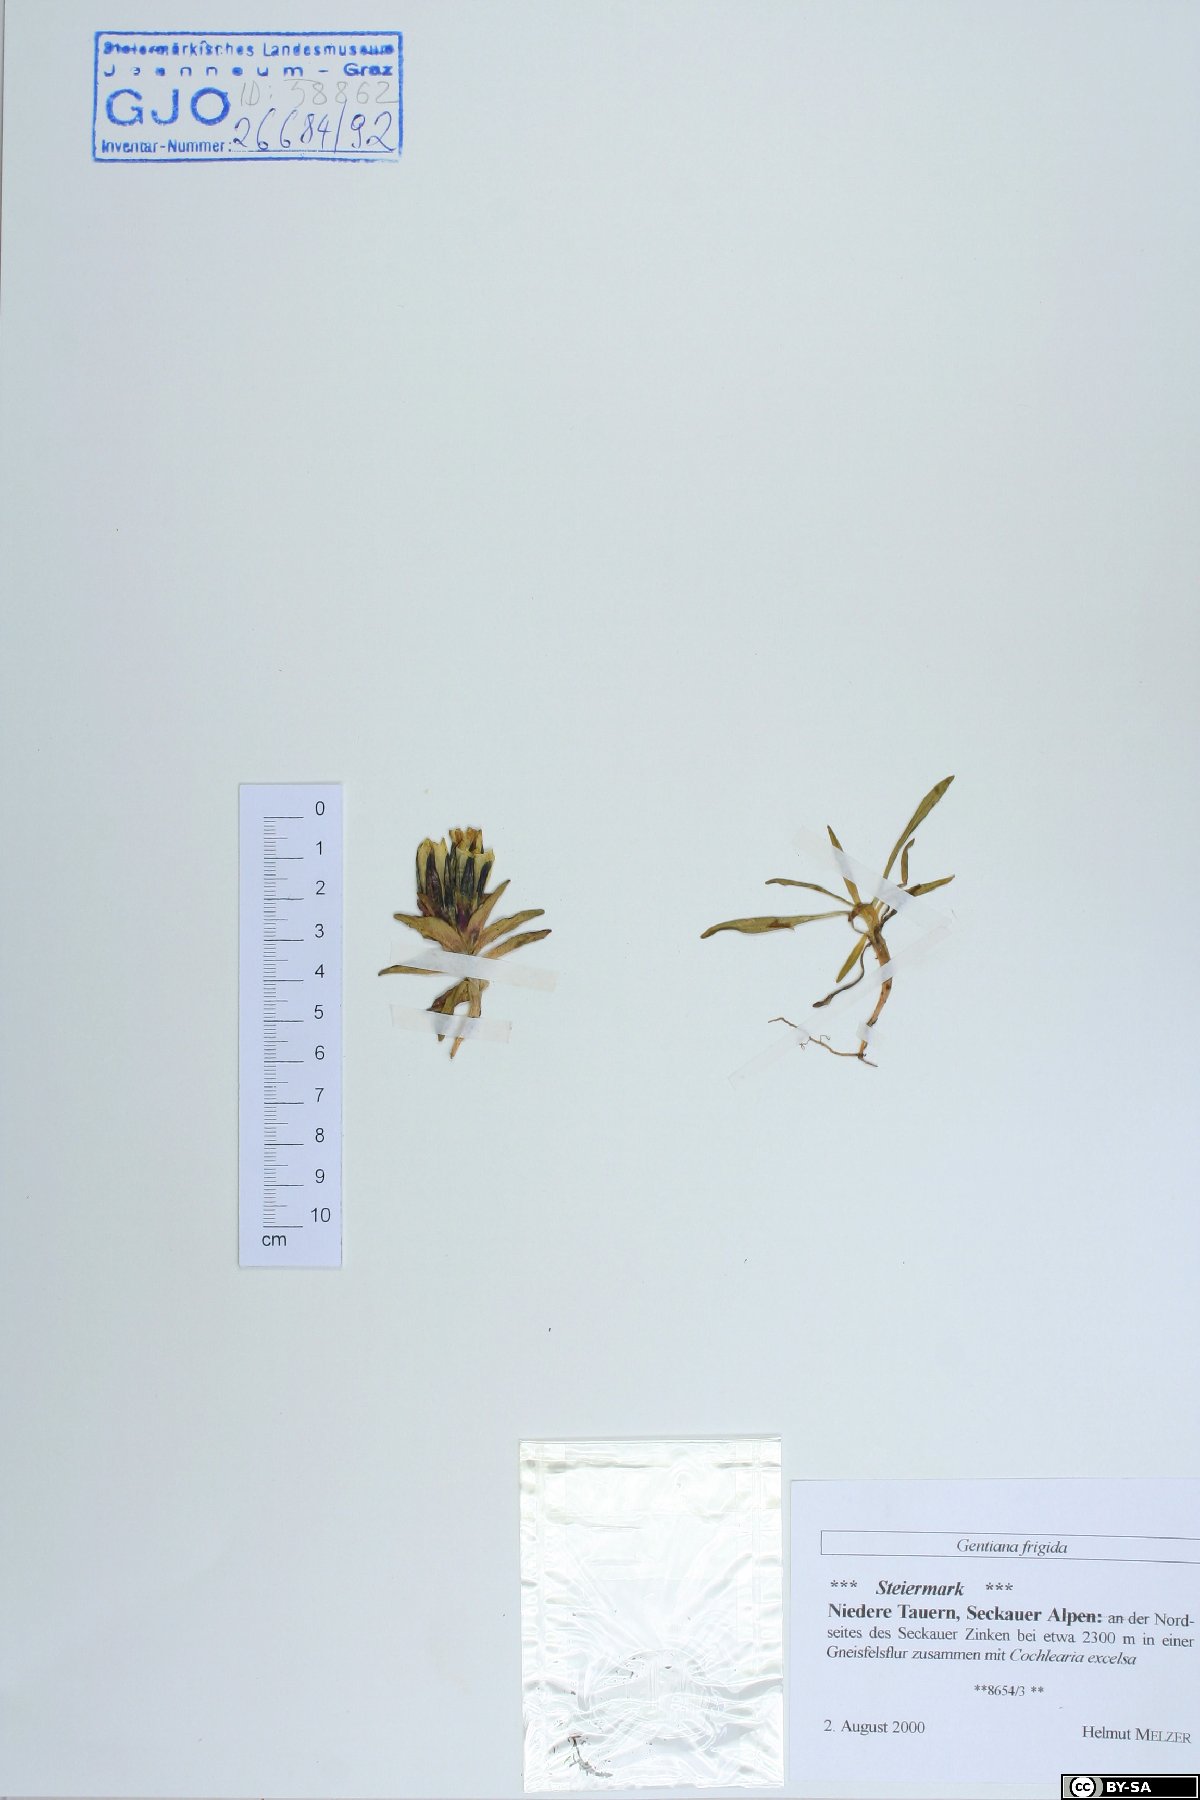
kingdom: Plantae
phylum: Tracheophyta
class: Magnoliopsida
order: Gentianales
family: Gentianaceae
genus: Gentiana
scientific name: Gentiana frigida
